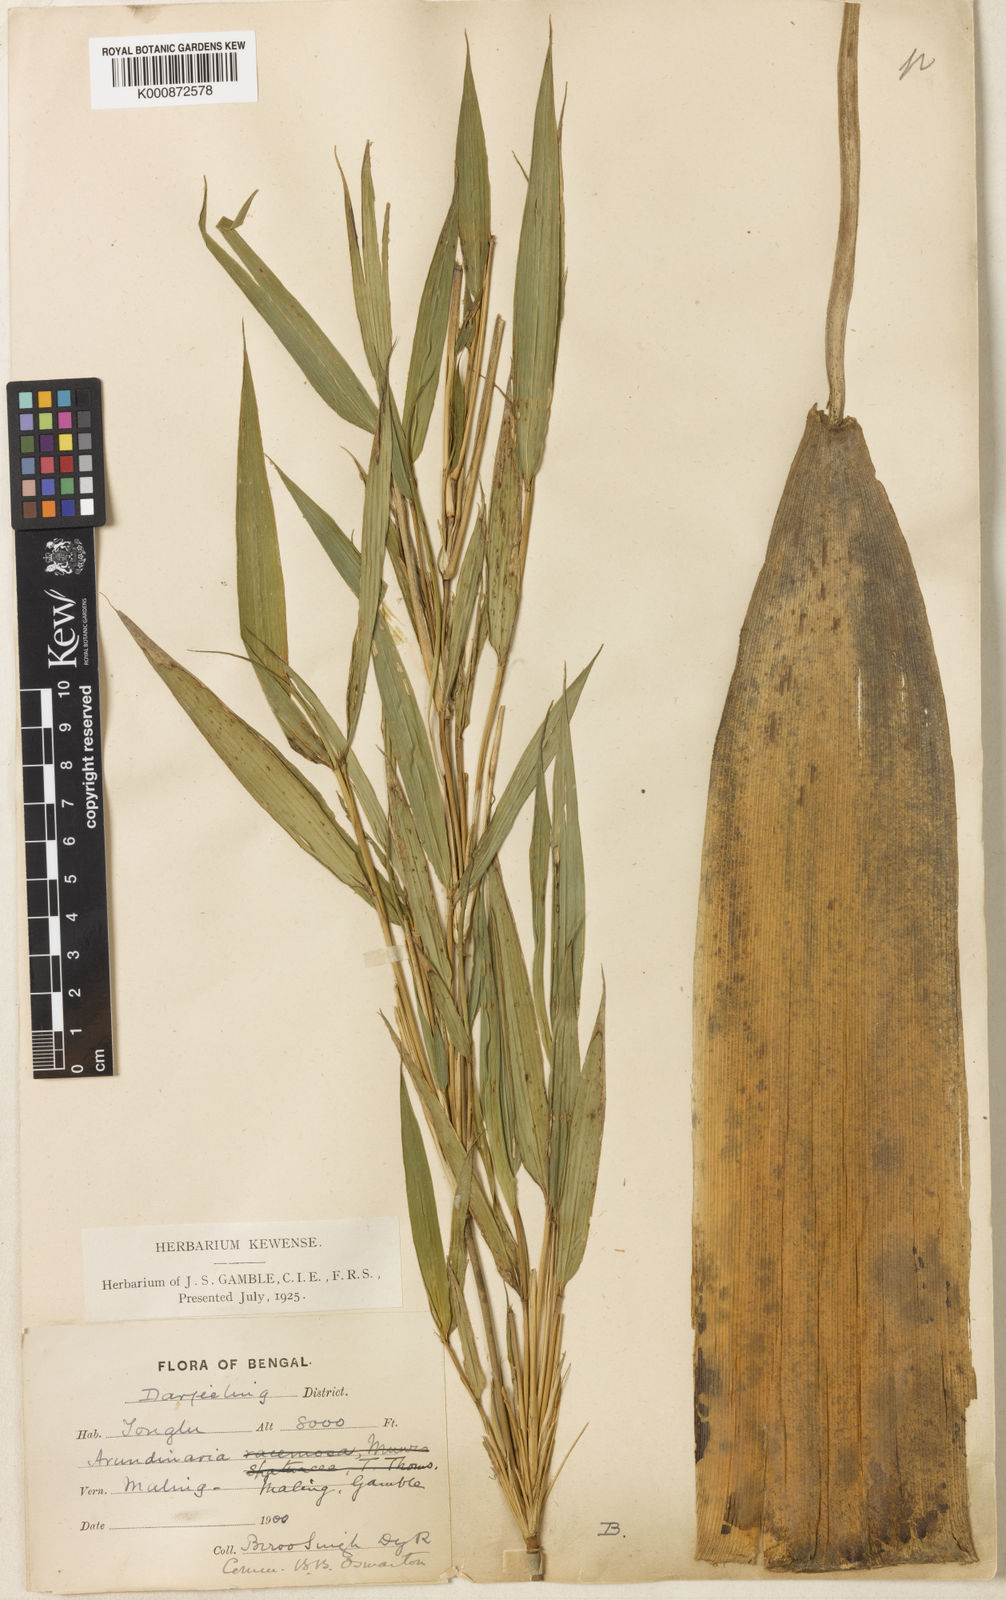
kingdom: Plantae
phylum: Tracheophyta
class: Liliopsida
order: Poales
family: Poaceae
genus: Yushania
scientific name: Yushania maling
